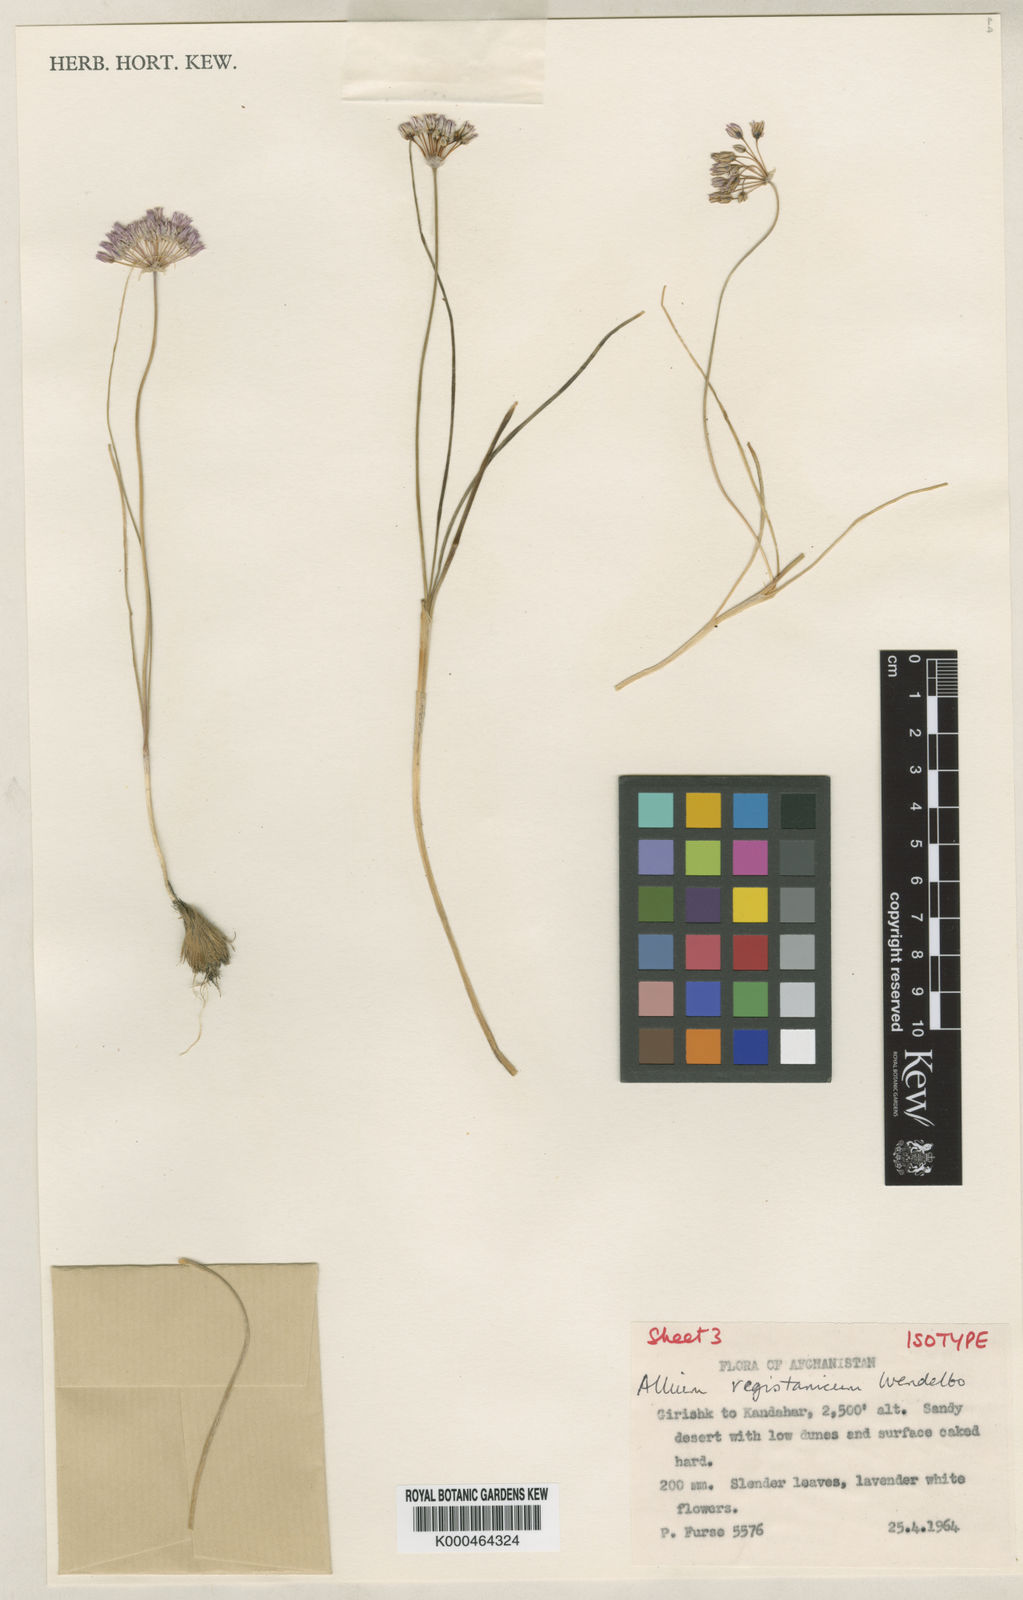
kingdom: Plantae
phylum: Tracheophyta
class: Liliopsida
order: Asparagales
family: Amaryllidaceae
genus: Allium
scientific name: Allium registanicum
